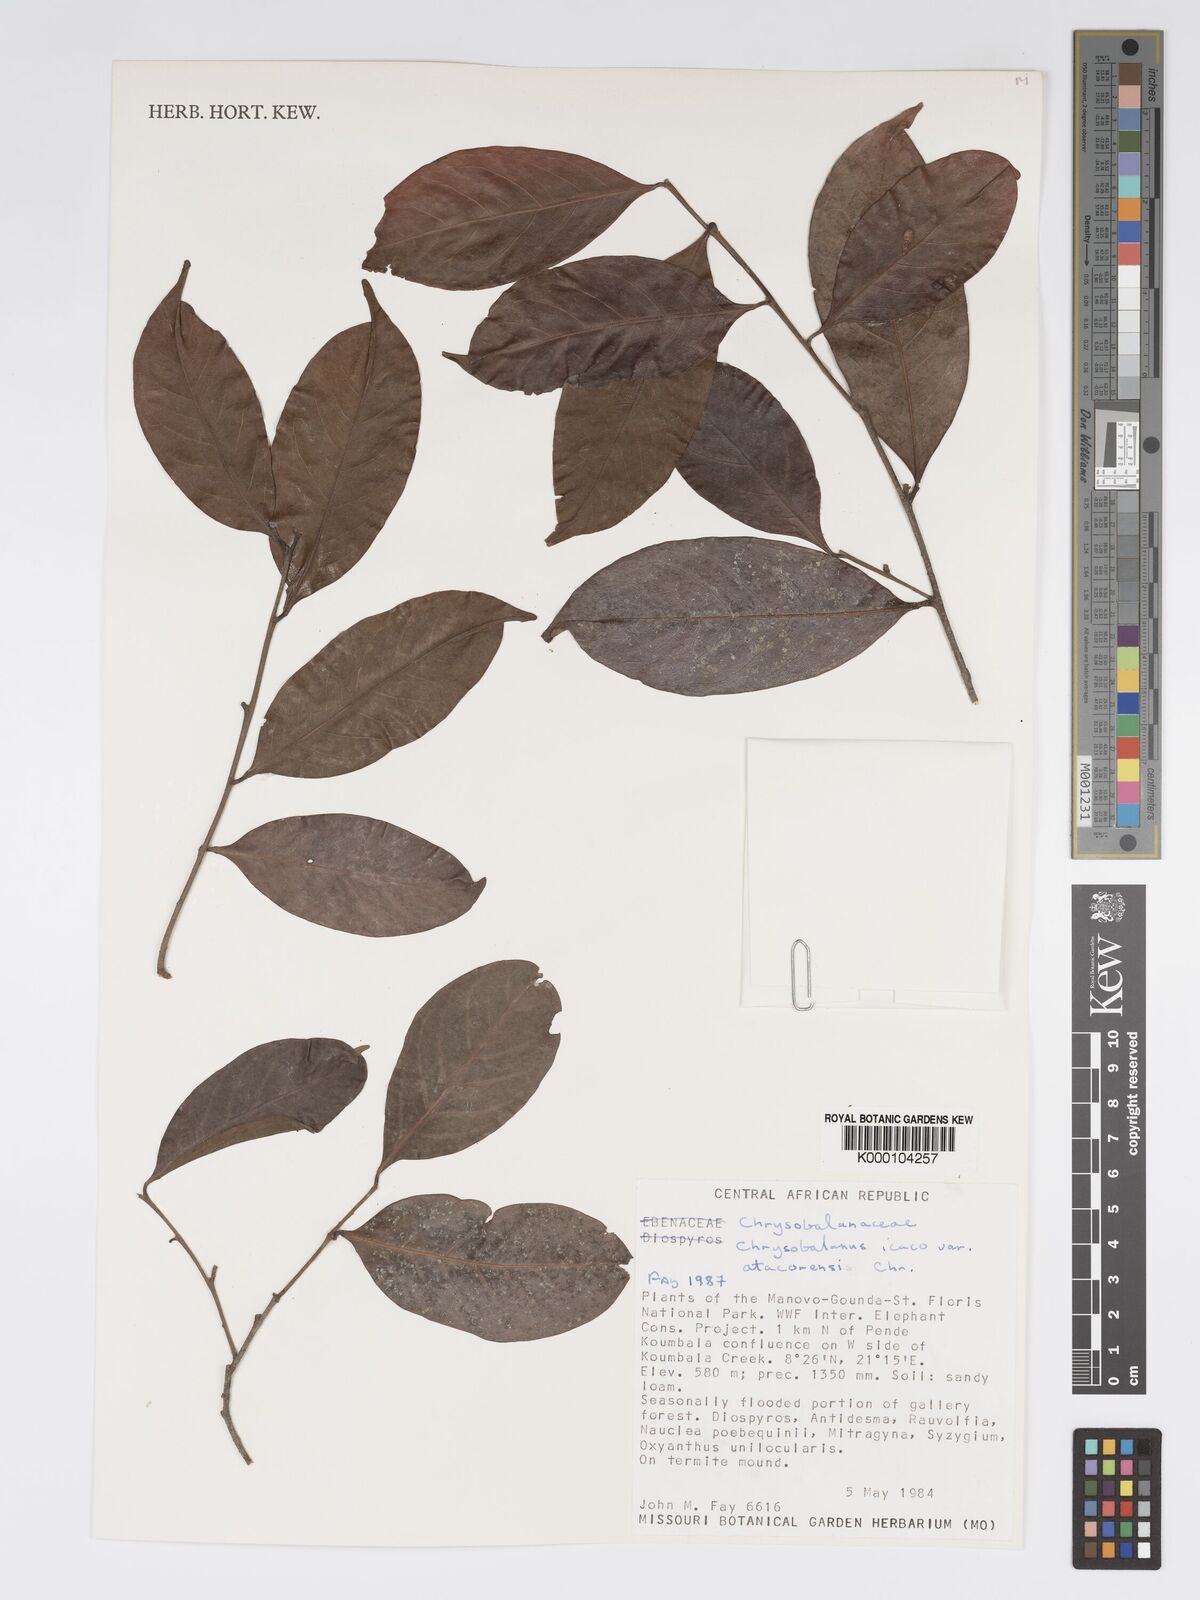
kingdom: Plantae
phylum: Tracheophyta
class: Magnoliopsida
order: Malpighiales
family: Chrysobalanaceae
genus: Chrysobalanus
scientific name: Chrysobalanus icaco
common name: Coco plum
